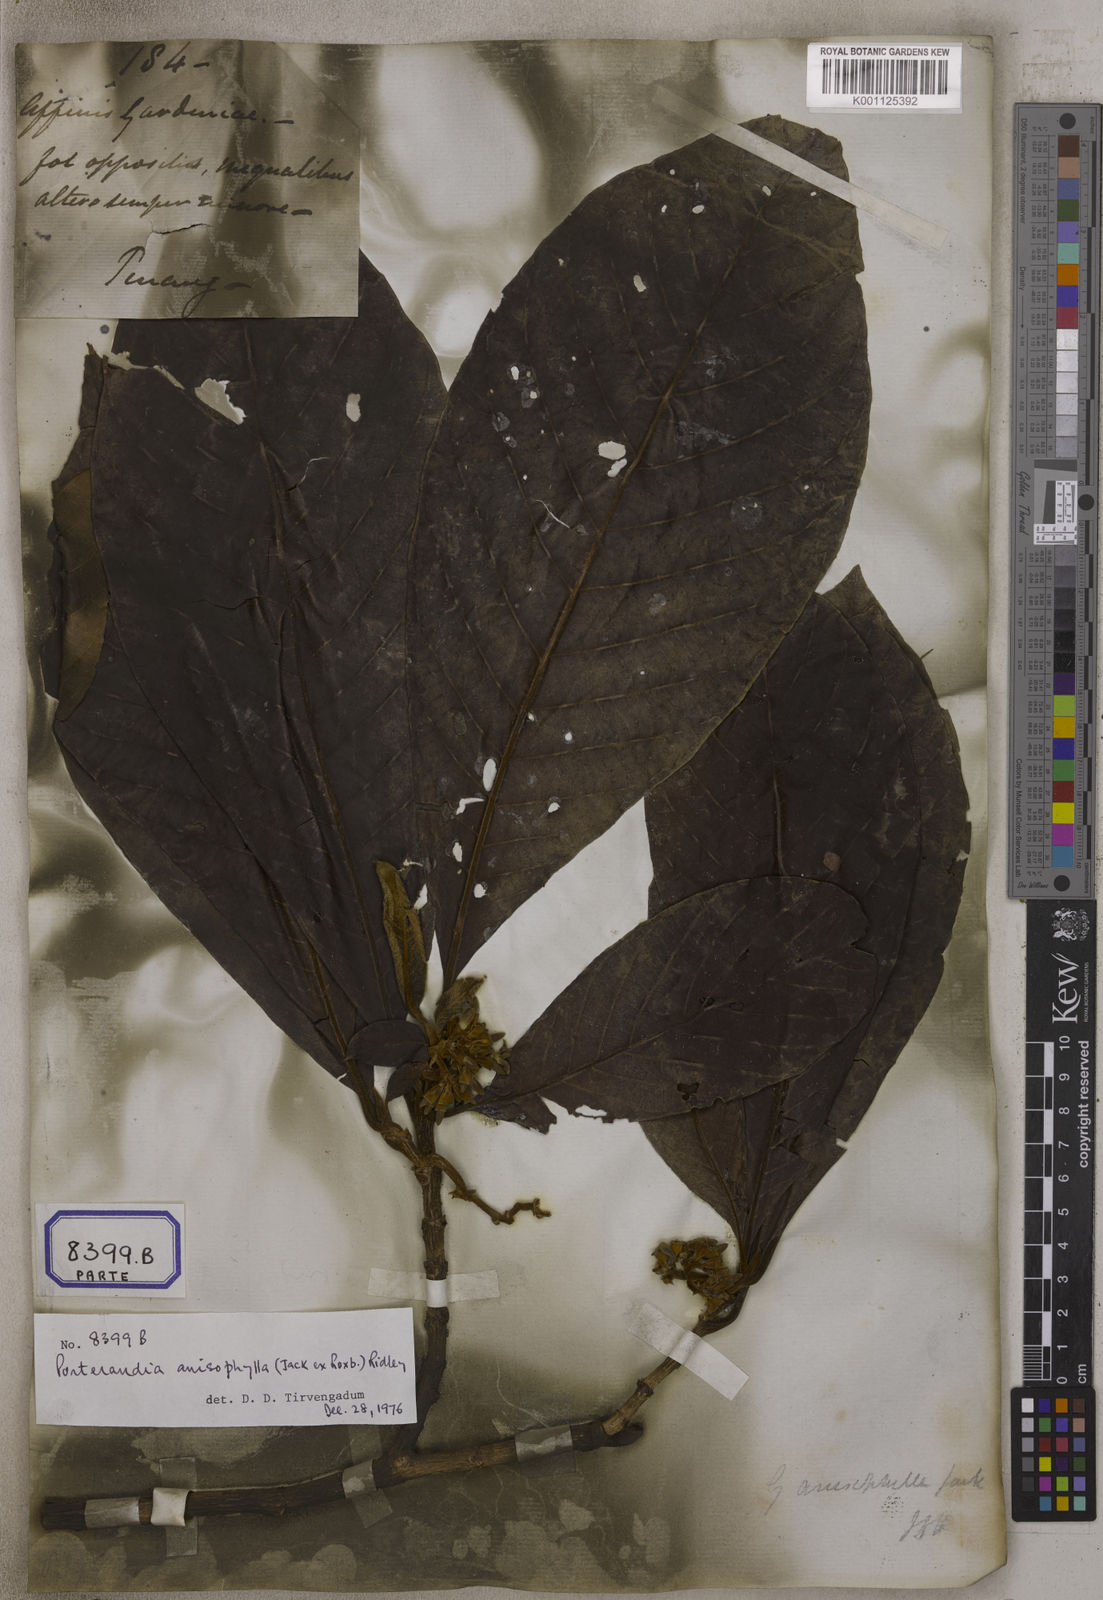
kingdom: Plantae
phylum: Tracheophyta
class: Magnoliopsida
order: Gentianales
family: Rubiaceae
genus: Gardenia
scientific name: Gardenia
